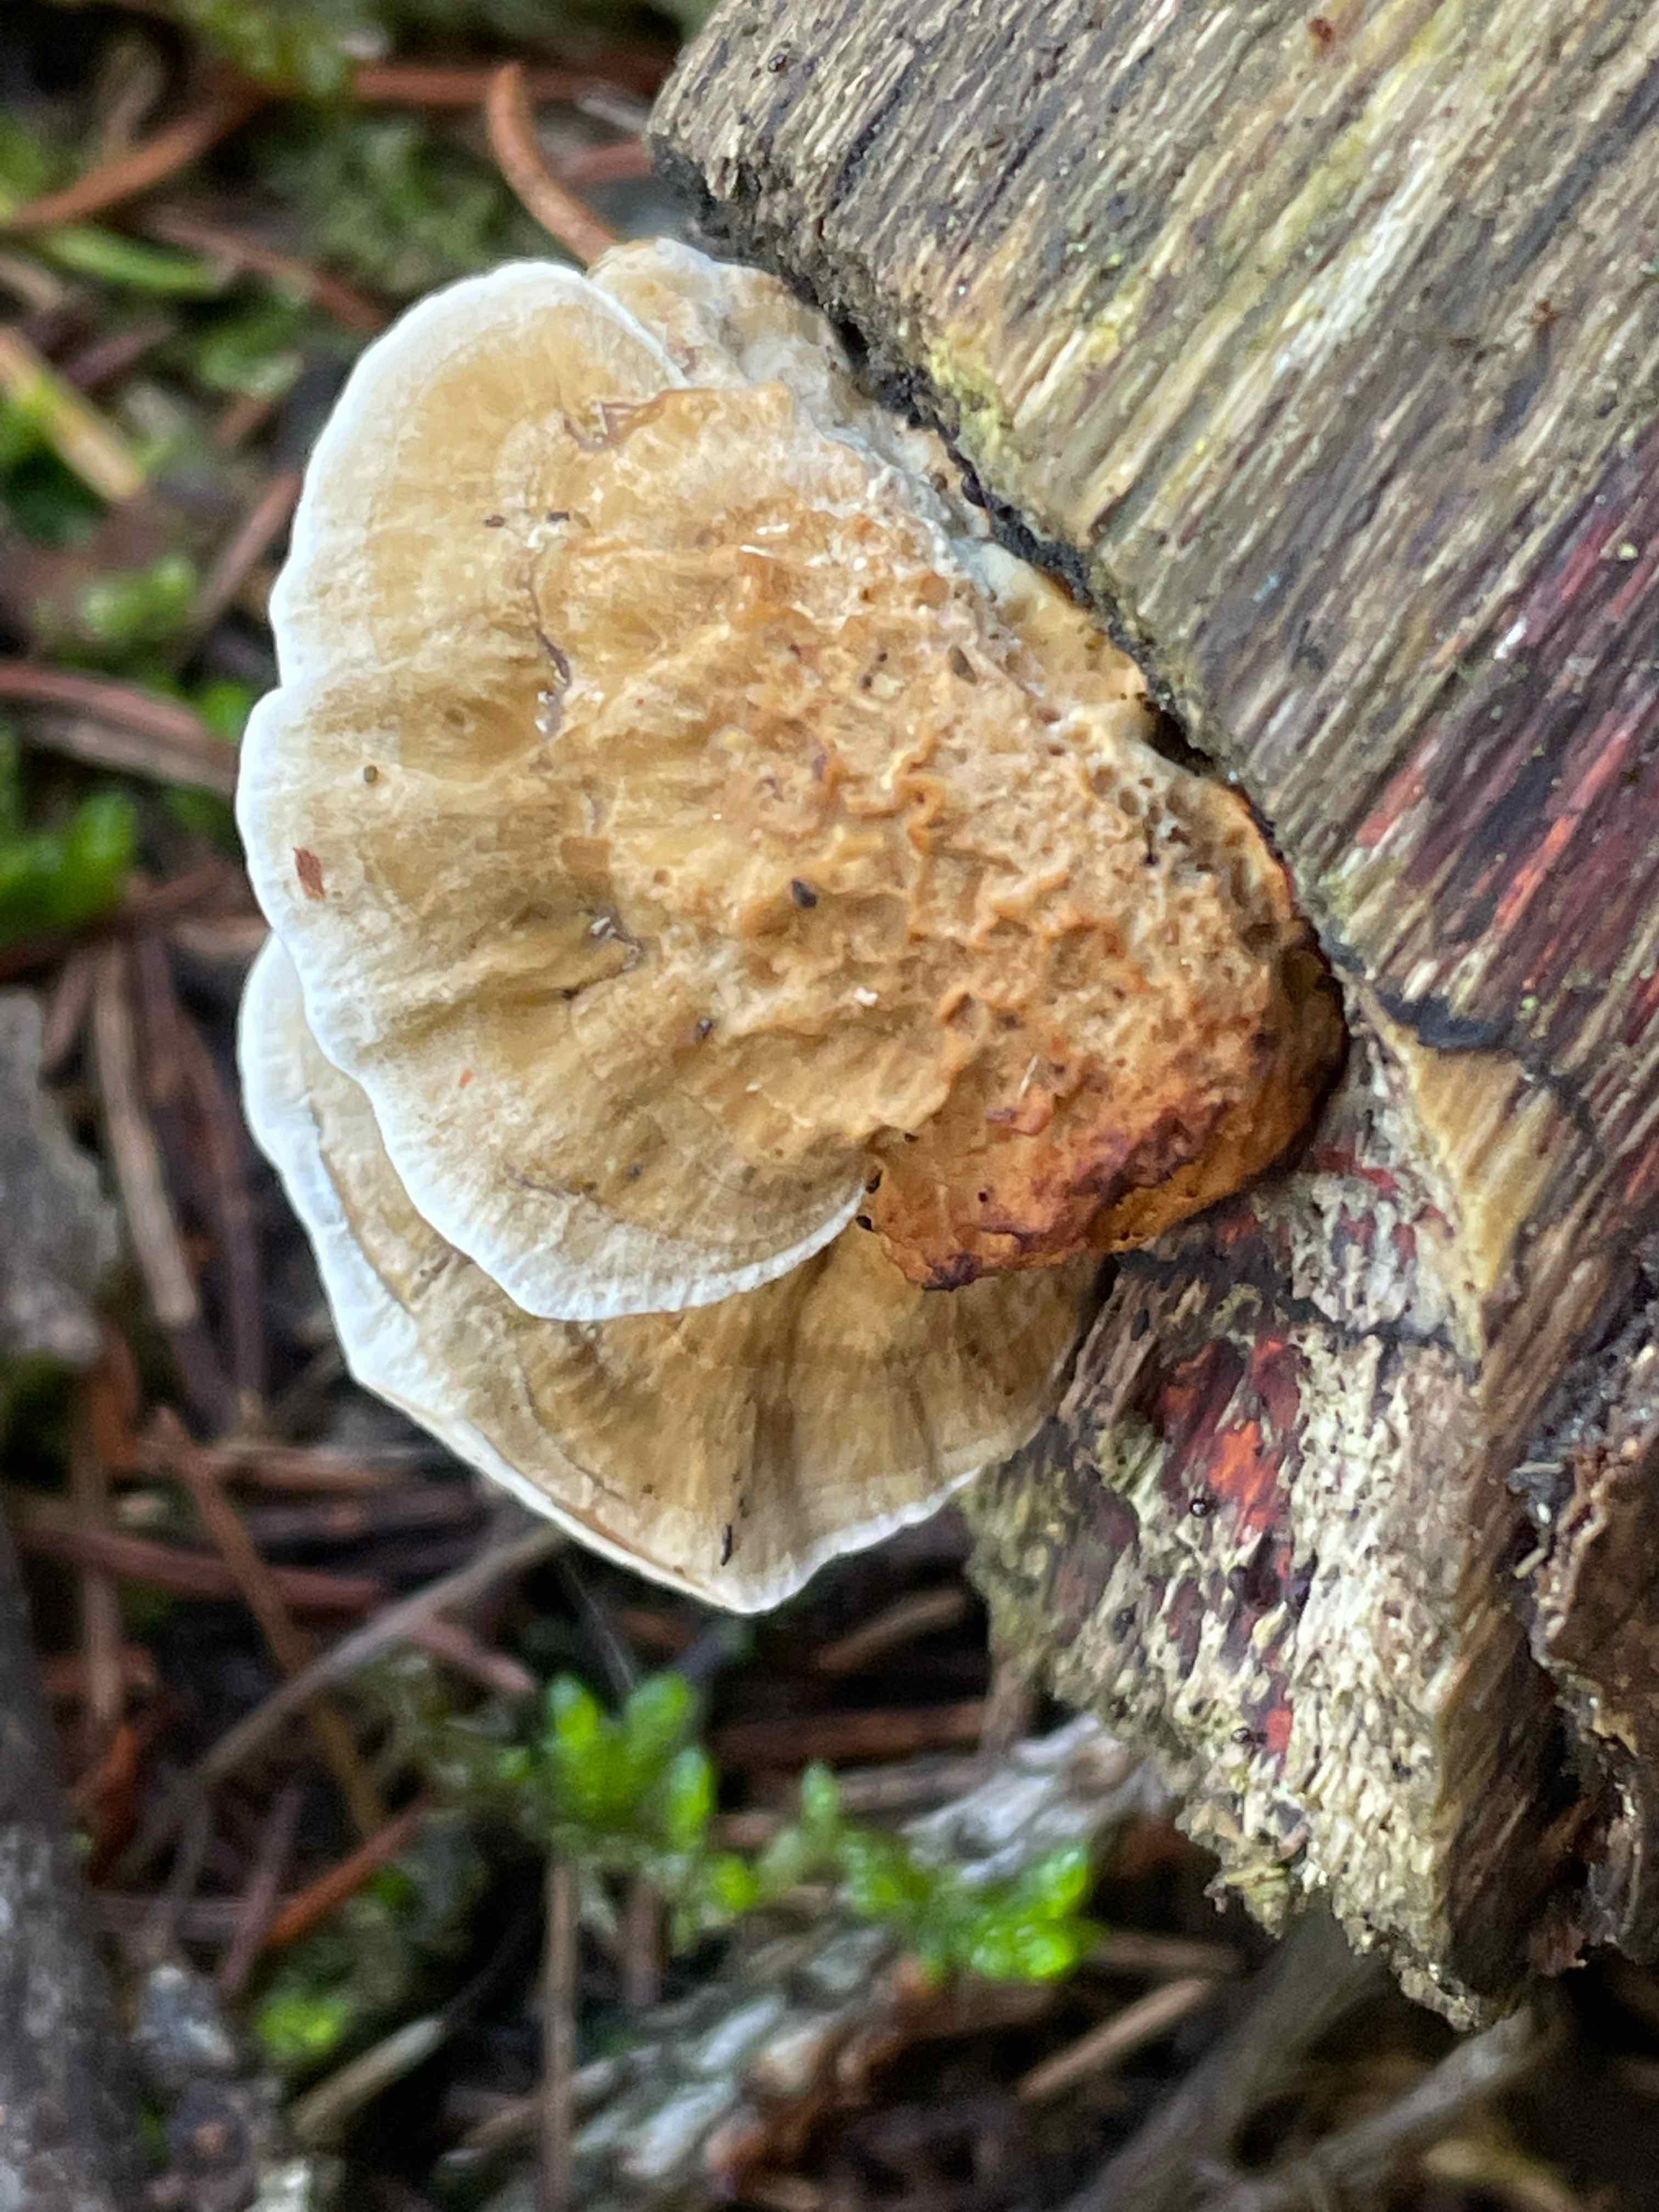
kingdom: Fungi
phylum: Basidiomycota
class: Agaricomycetes
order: Polyporales
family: Polyporaceae
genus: Daedaleopsis
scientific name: Daedaleopsis confragosa
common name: rødmende læderporesvamp
